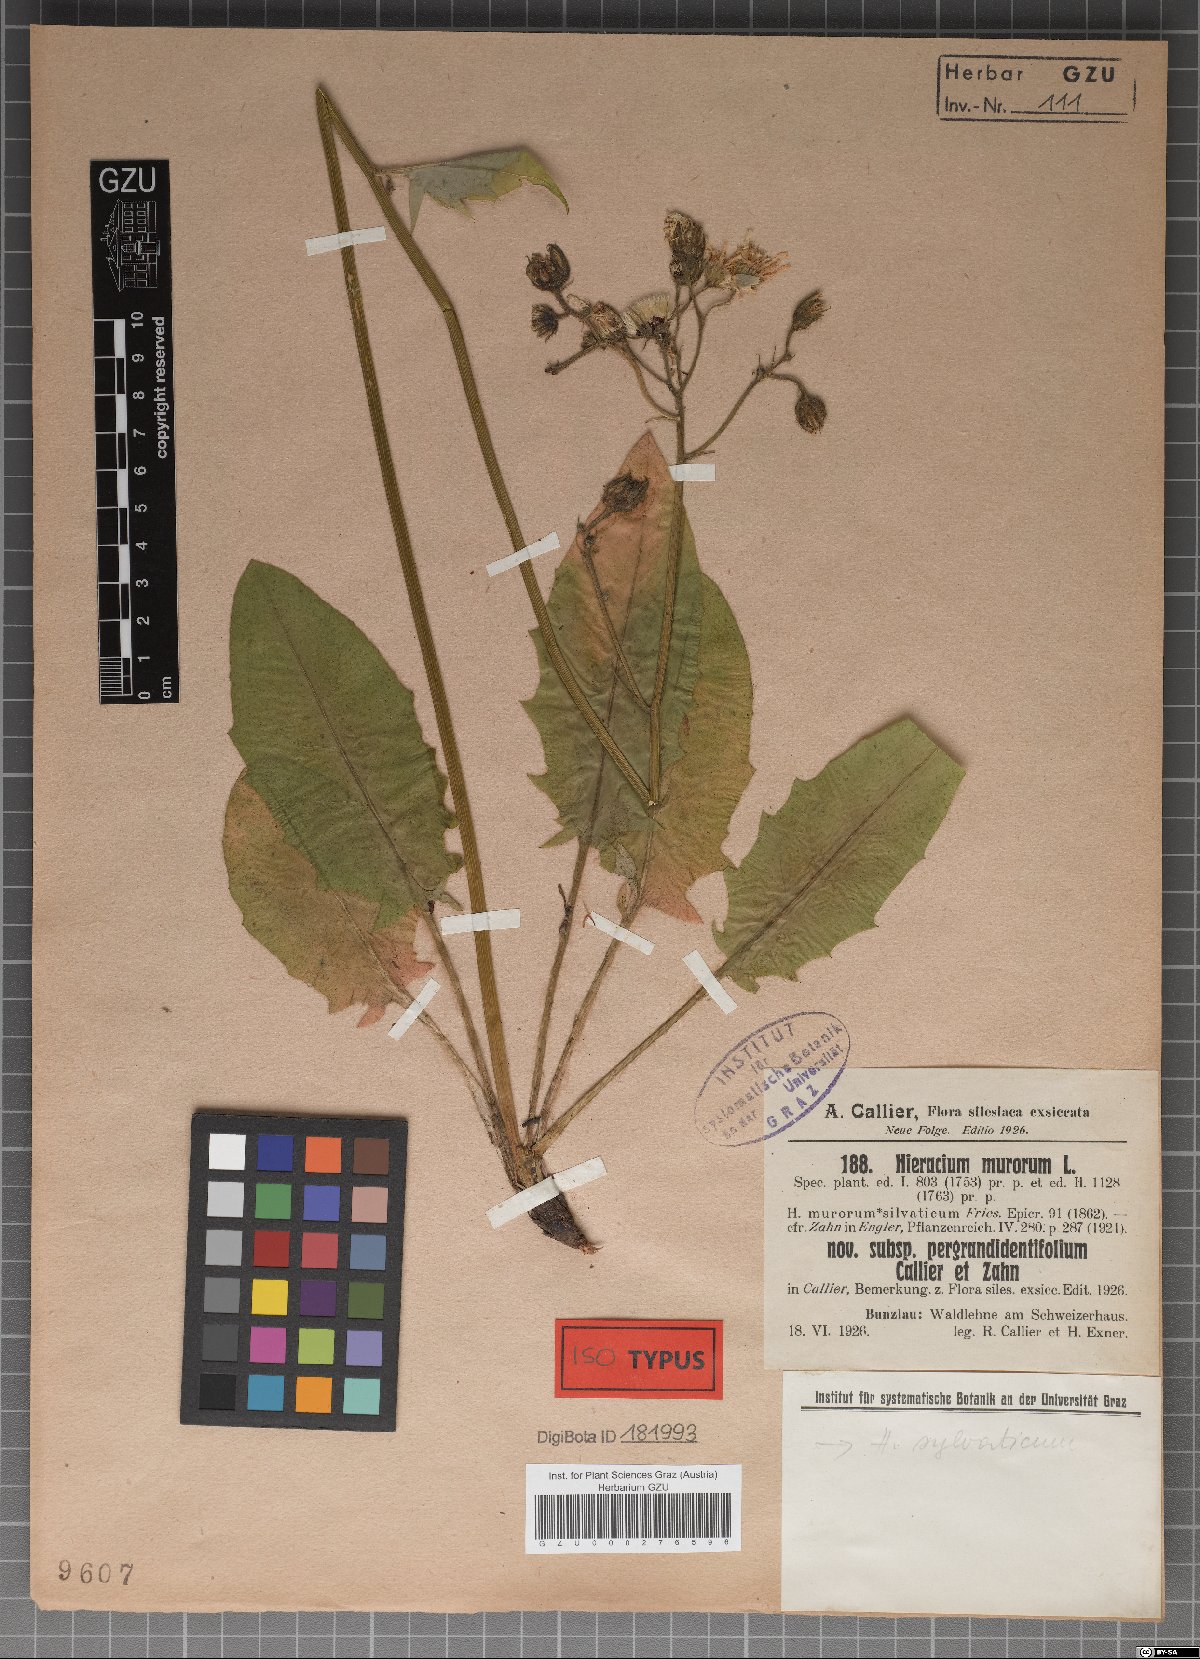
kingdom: Plantae
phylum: Tracheophyta
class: Magnoliopsida
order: Asterales
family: Asteraceae
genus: Hieracium
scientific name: Hieracium murorum
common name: Wall hawkweed
